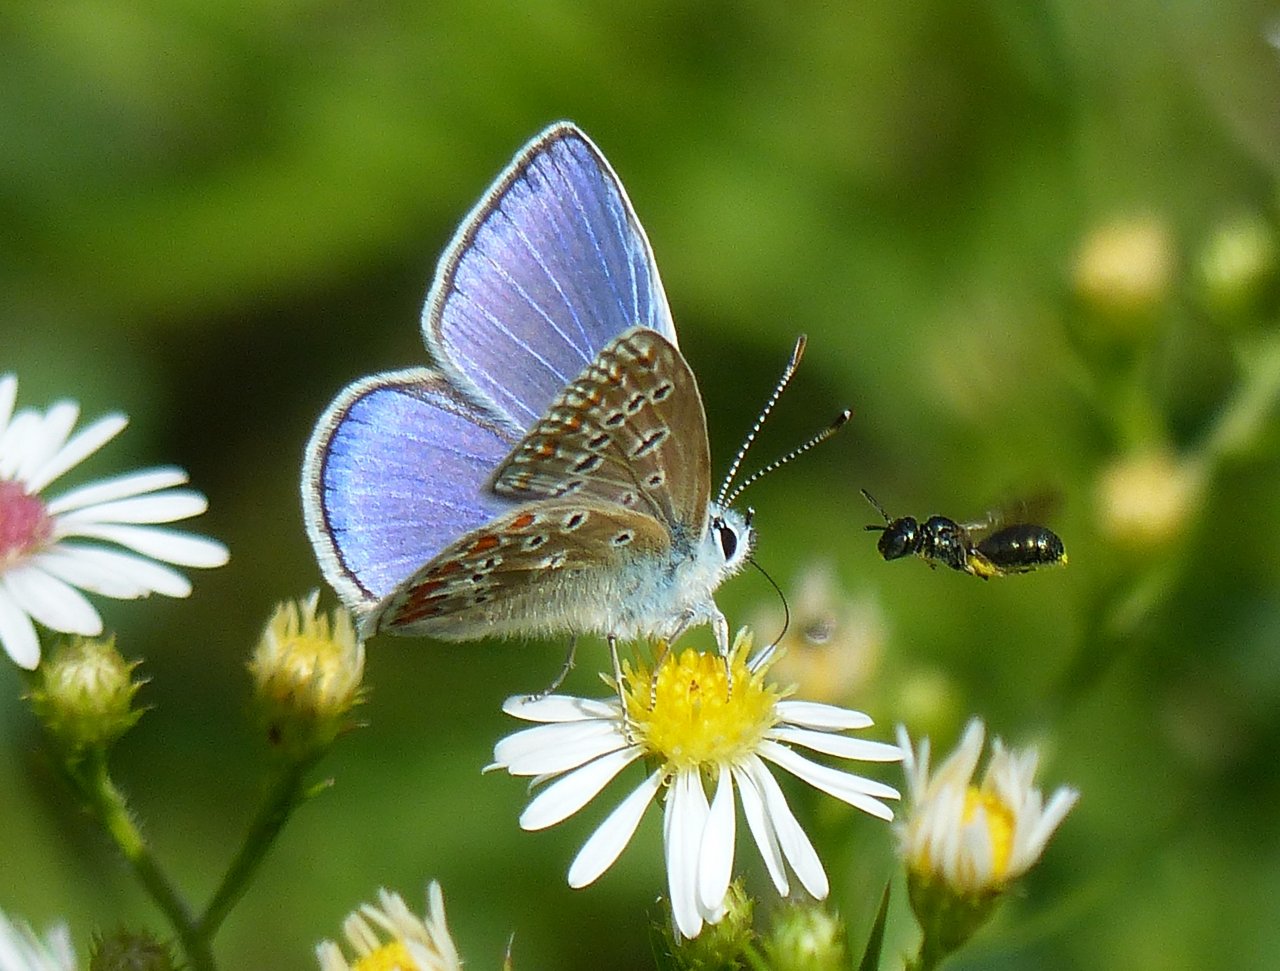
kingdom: Animalia
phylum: Arthropoda
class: Insecta
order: Lepidoptera
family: Lycaenidae
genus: Polyommatus
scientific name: Polyommatus icarus
